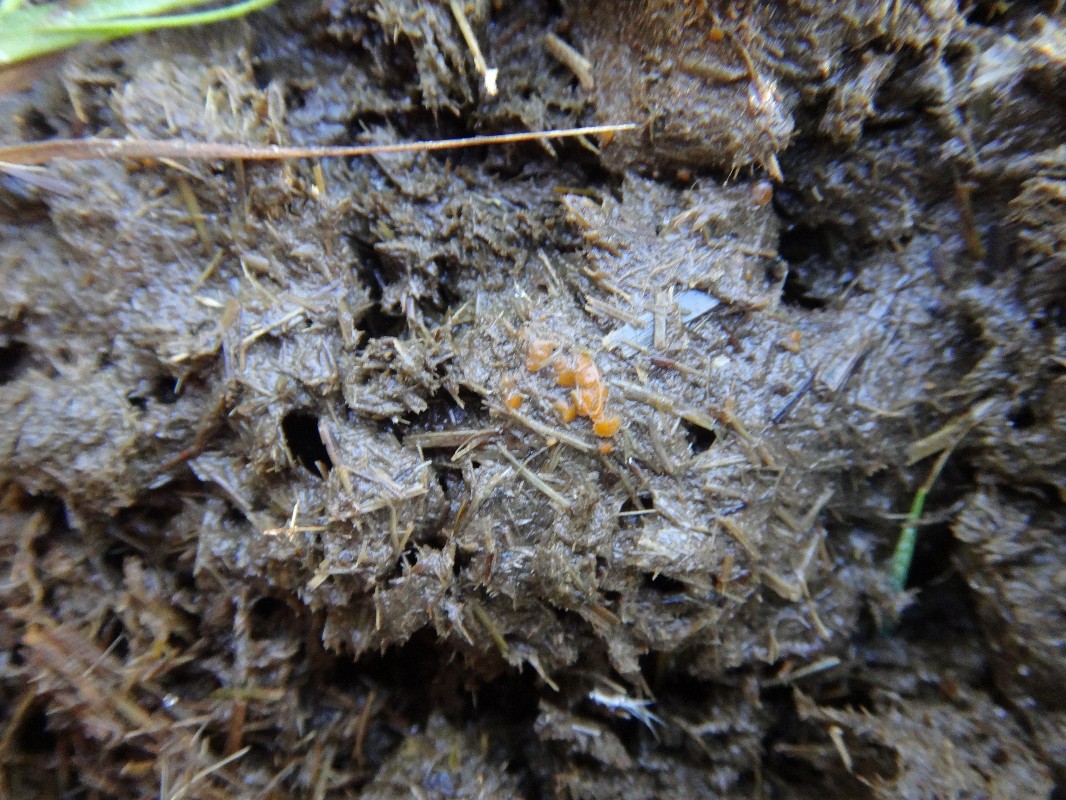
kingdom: Fungi
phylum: Ascomycota
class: Pezizomycetes
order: Pezizales
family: Pyronemataceae
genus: Cheilymenia
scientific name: Cheilymenia granulata
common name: møgbæger
